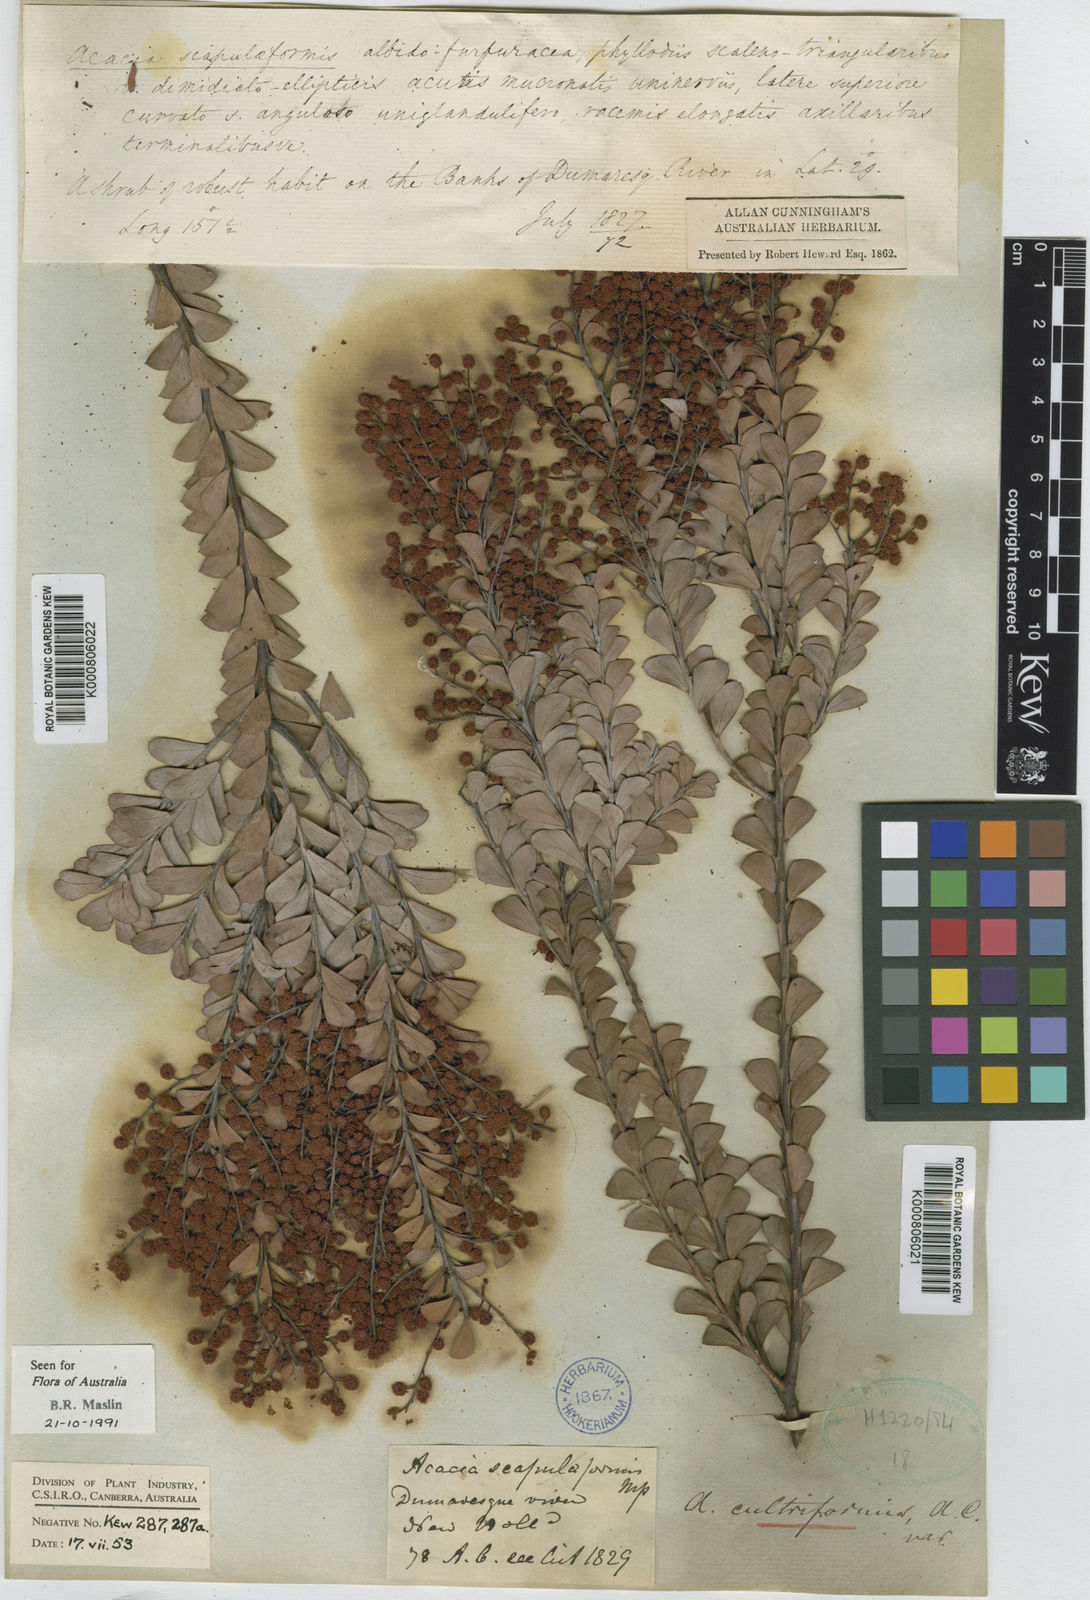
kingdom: Plantae
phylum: Tracheophyta
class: Magnoliopsida
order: Fabales
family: Fabaceae
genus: Acacia
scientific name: Acacia
